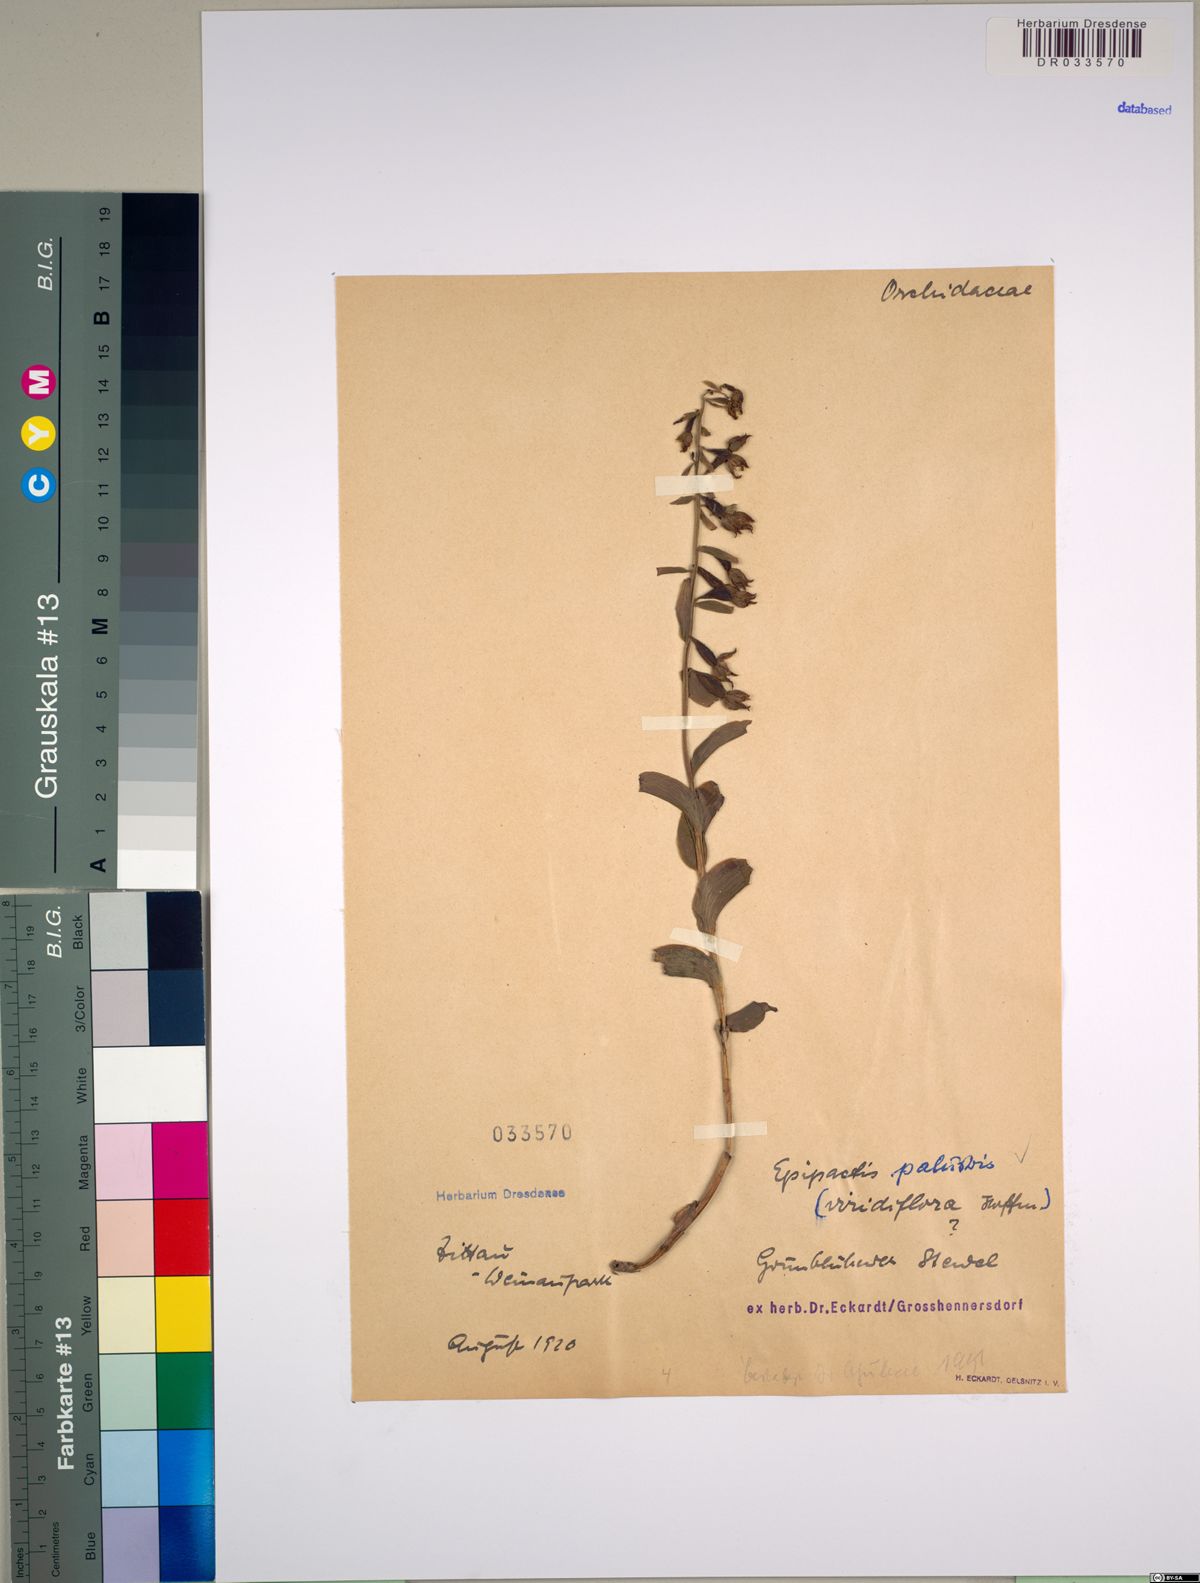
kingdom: Plantae
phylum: Tracheophyta
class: Liliopsida
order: Asparagales
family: Orchidaceae
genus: Epipactis
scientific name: Epipactis palustris
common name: Marsh helleborine
